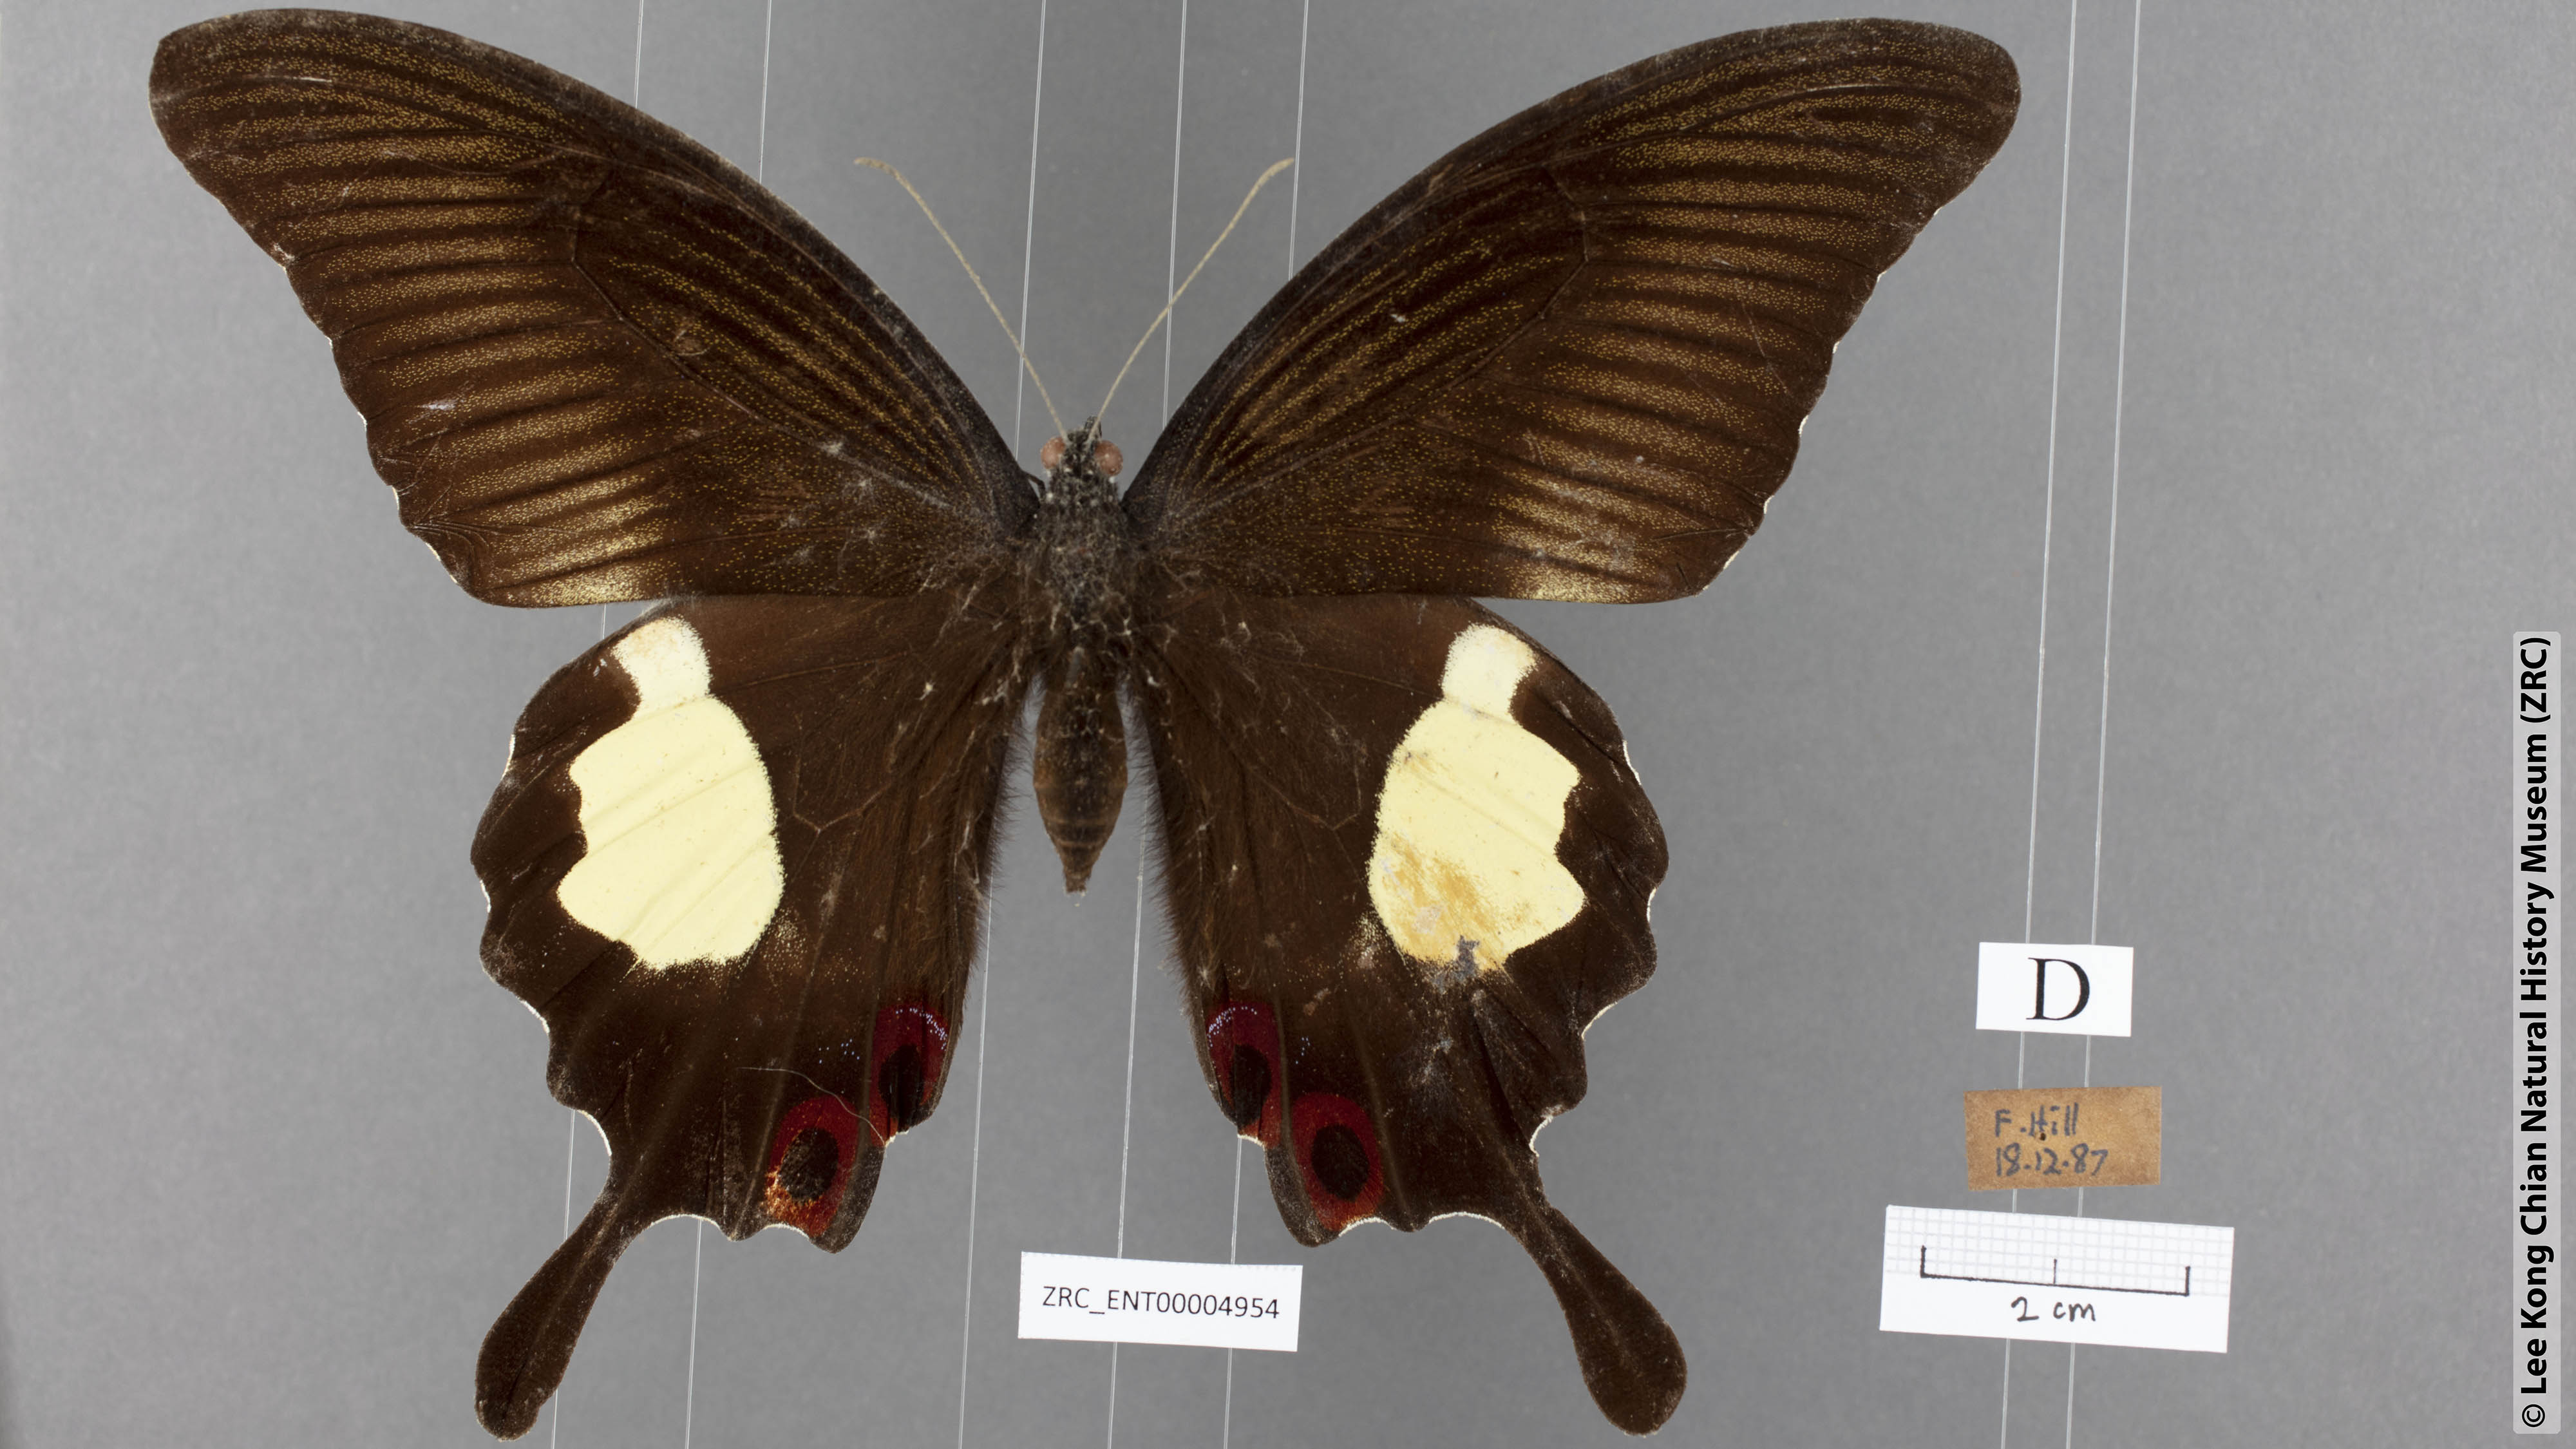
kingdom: Animalia
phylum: Arthropoda
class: Insecta
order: Lepidoptera
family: Papilionidae
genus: Papilio
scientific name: Papilio iswara
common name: Great helen swallowtail
